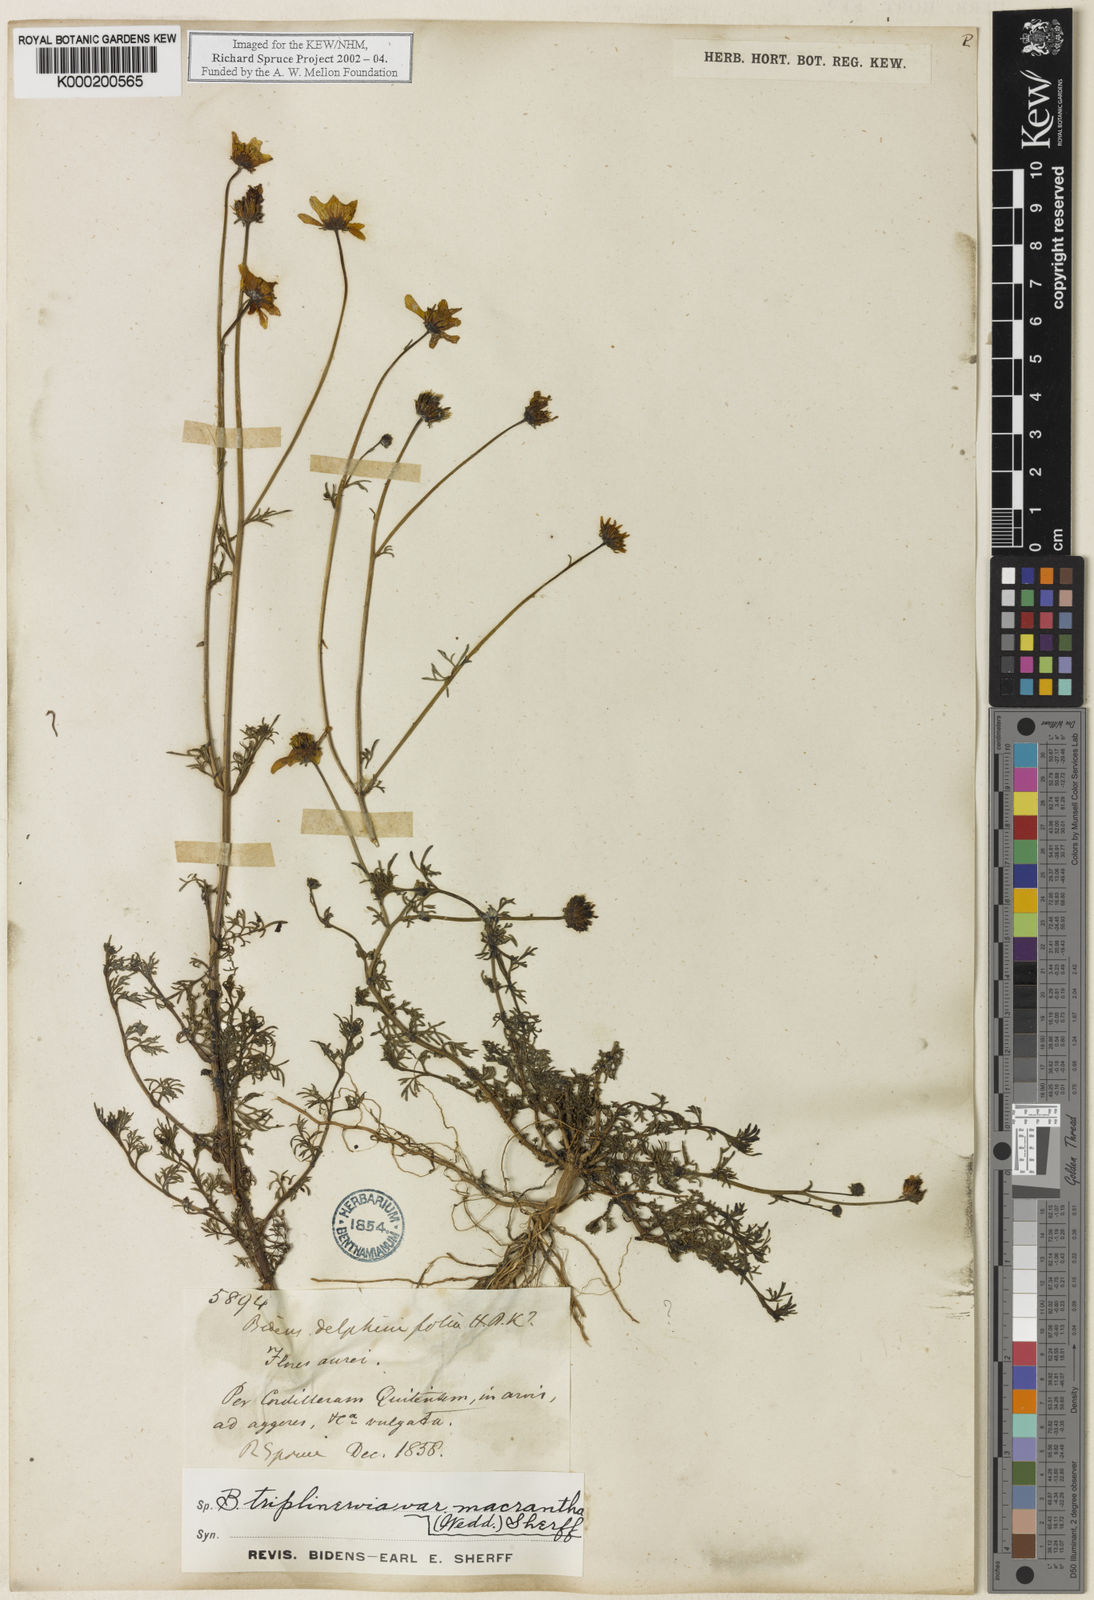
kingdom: Plantae
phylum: Tracheophyta
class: Magnoliopsida
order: Asterales
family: Asteraceae
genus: Bidens
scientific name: Bidens triplinervia
